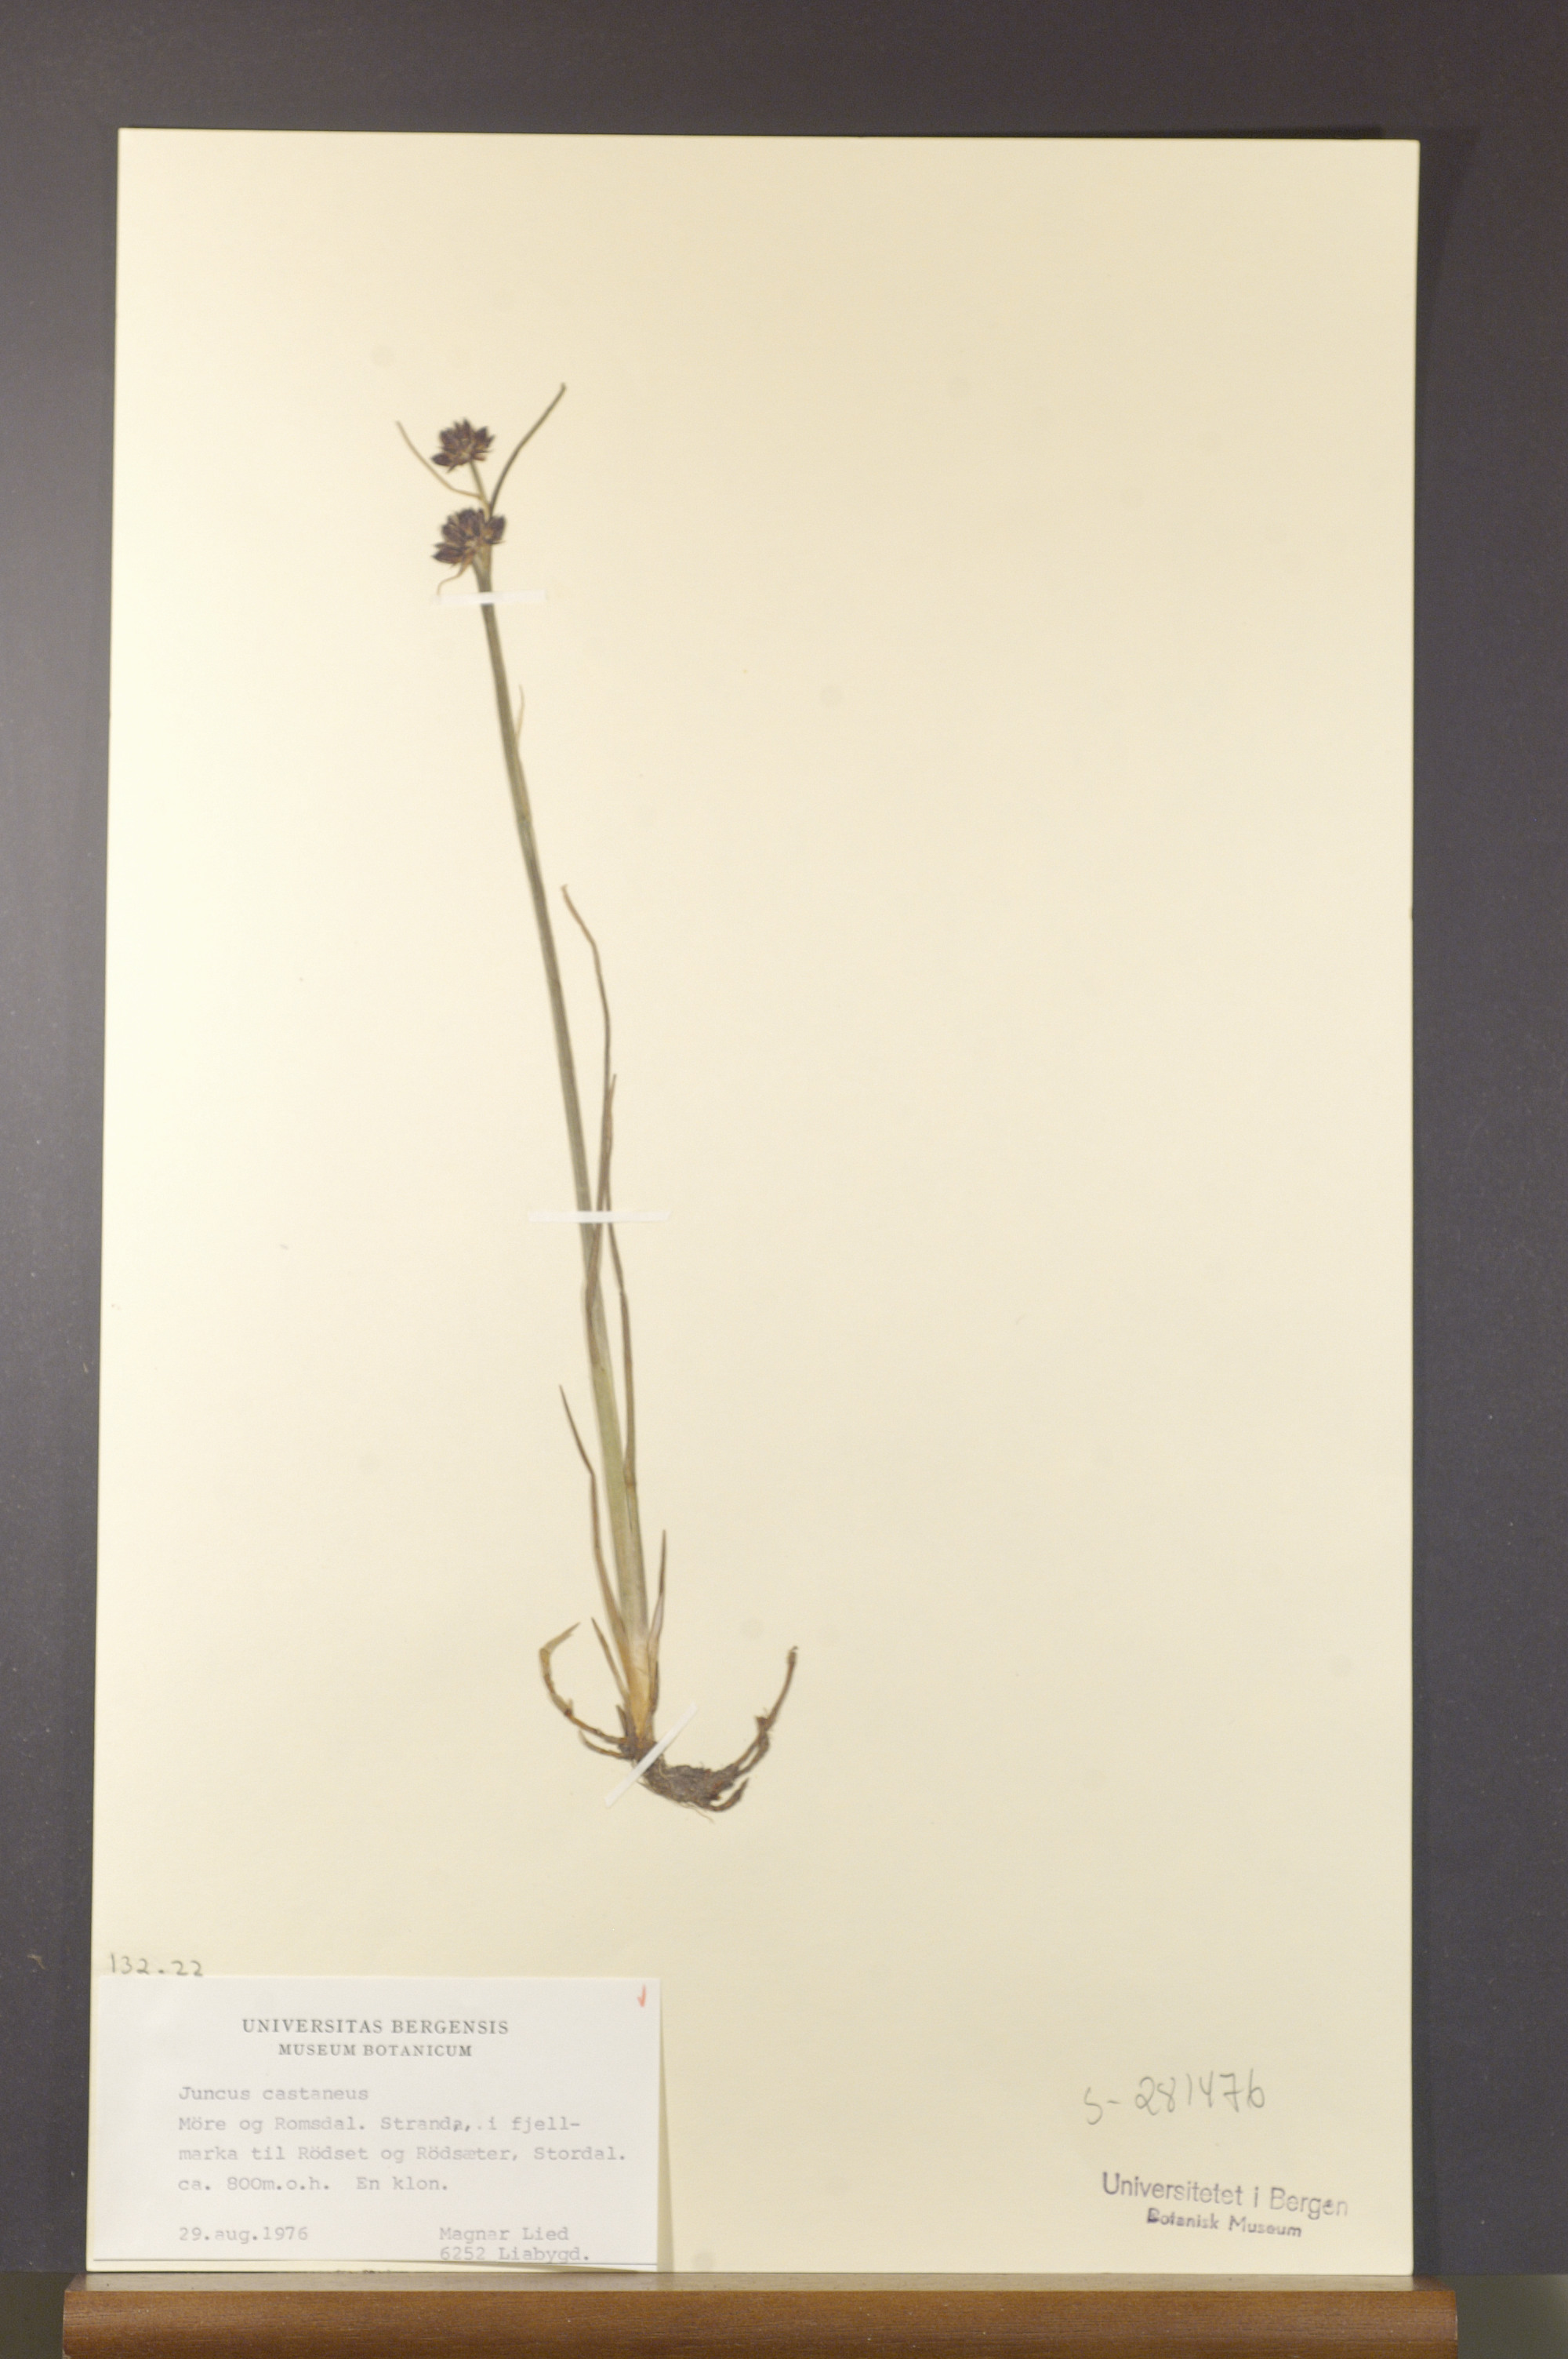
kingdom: Plantae
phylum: Tracheophyta
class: Liliopsida
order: Poales
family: Juncaceae
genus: Juncus
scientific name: Juncus castaneus
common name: Chestnut rush
